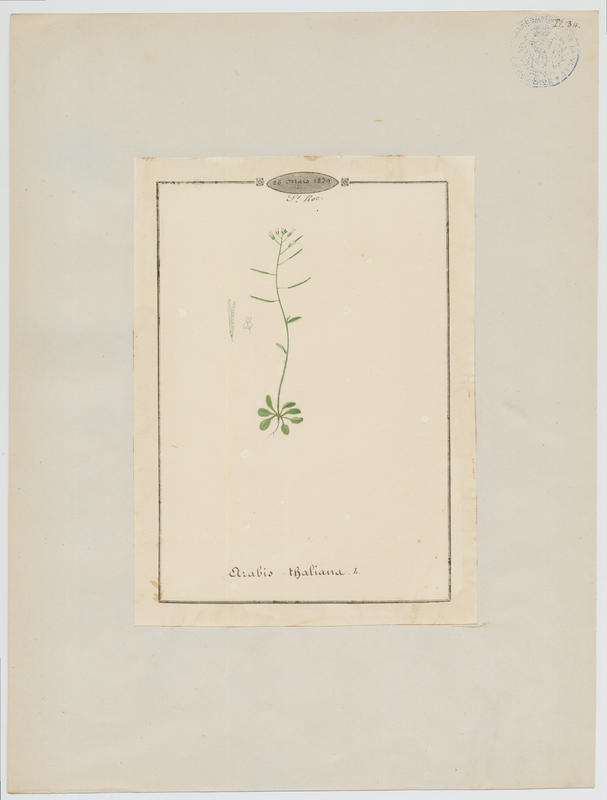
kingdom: Plantae
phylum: Tracheophyta
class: Magnoliopsida
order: Brassicales
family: Brassicaceae
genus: Arabidopsis
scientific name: Arabidopsis thaliana
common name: Thale cress
